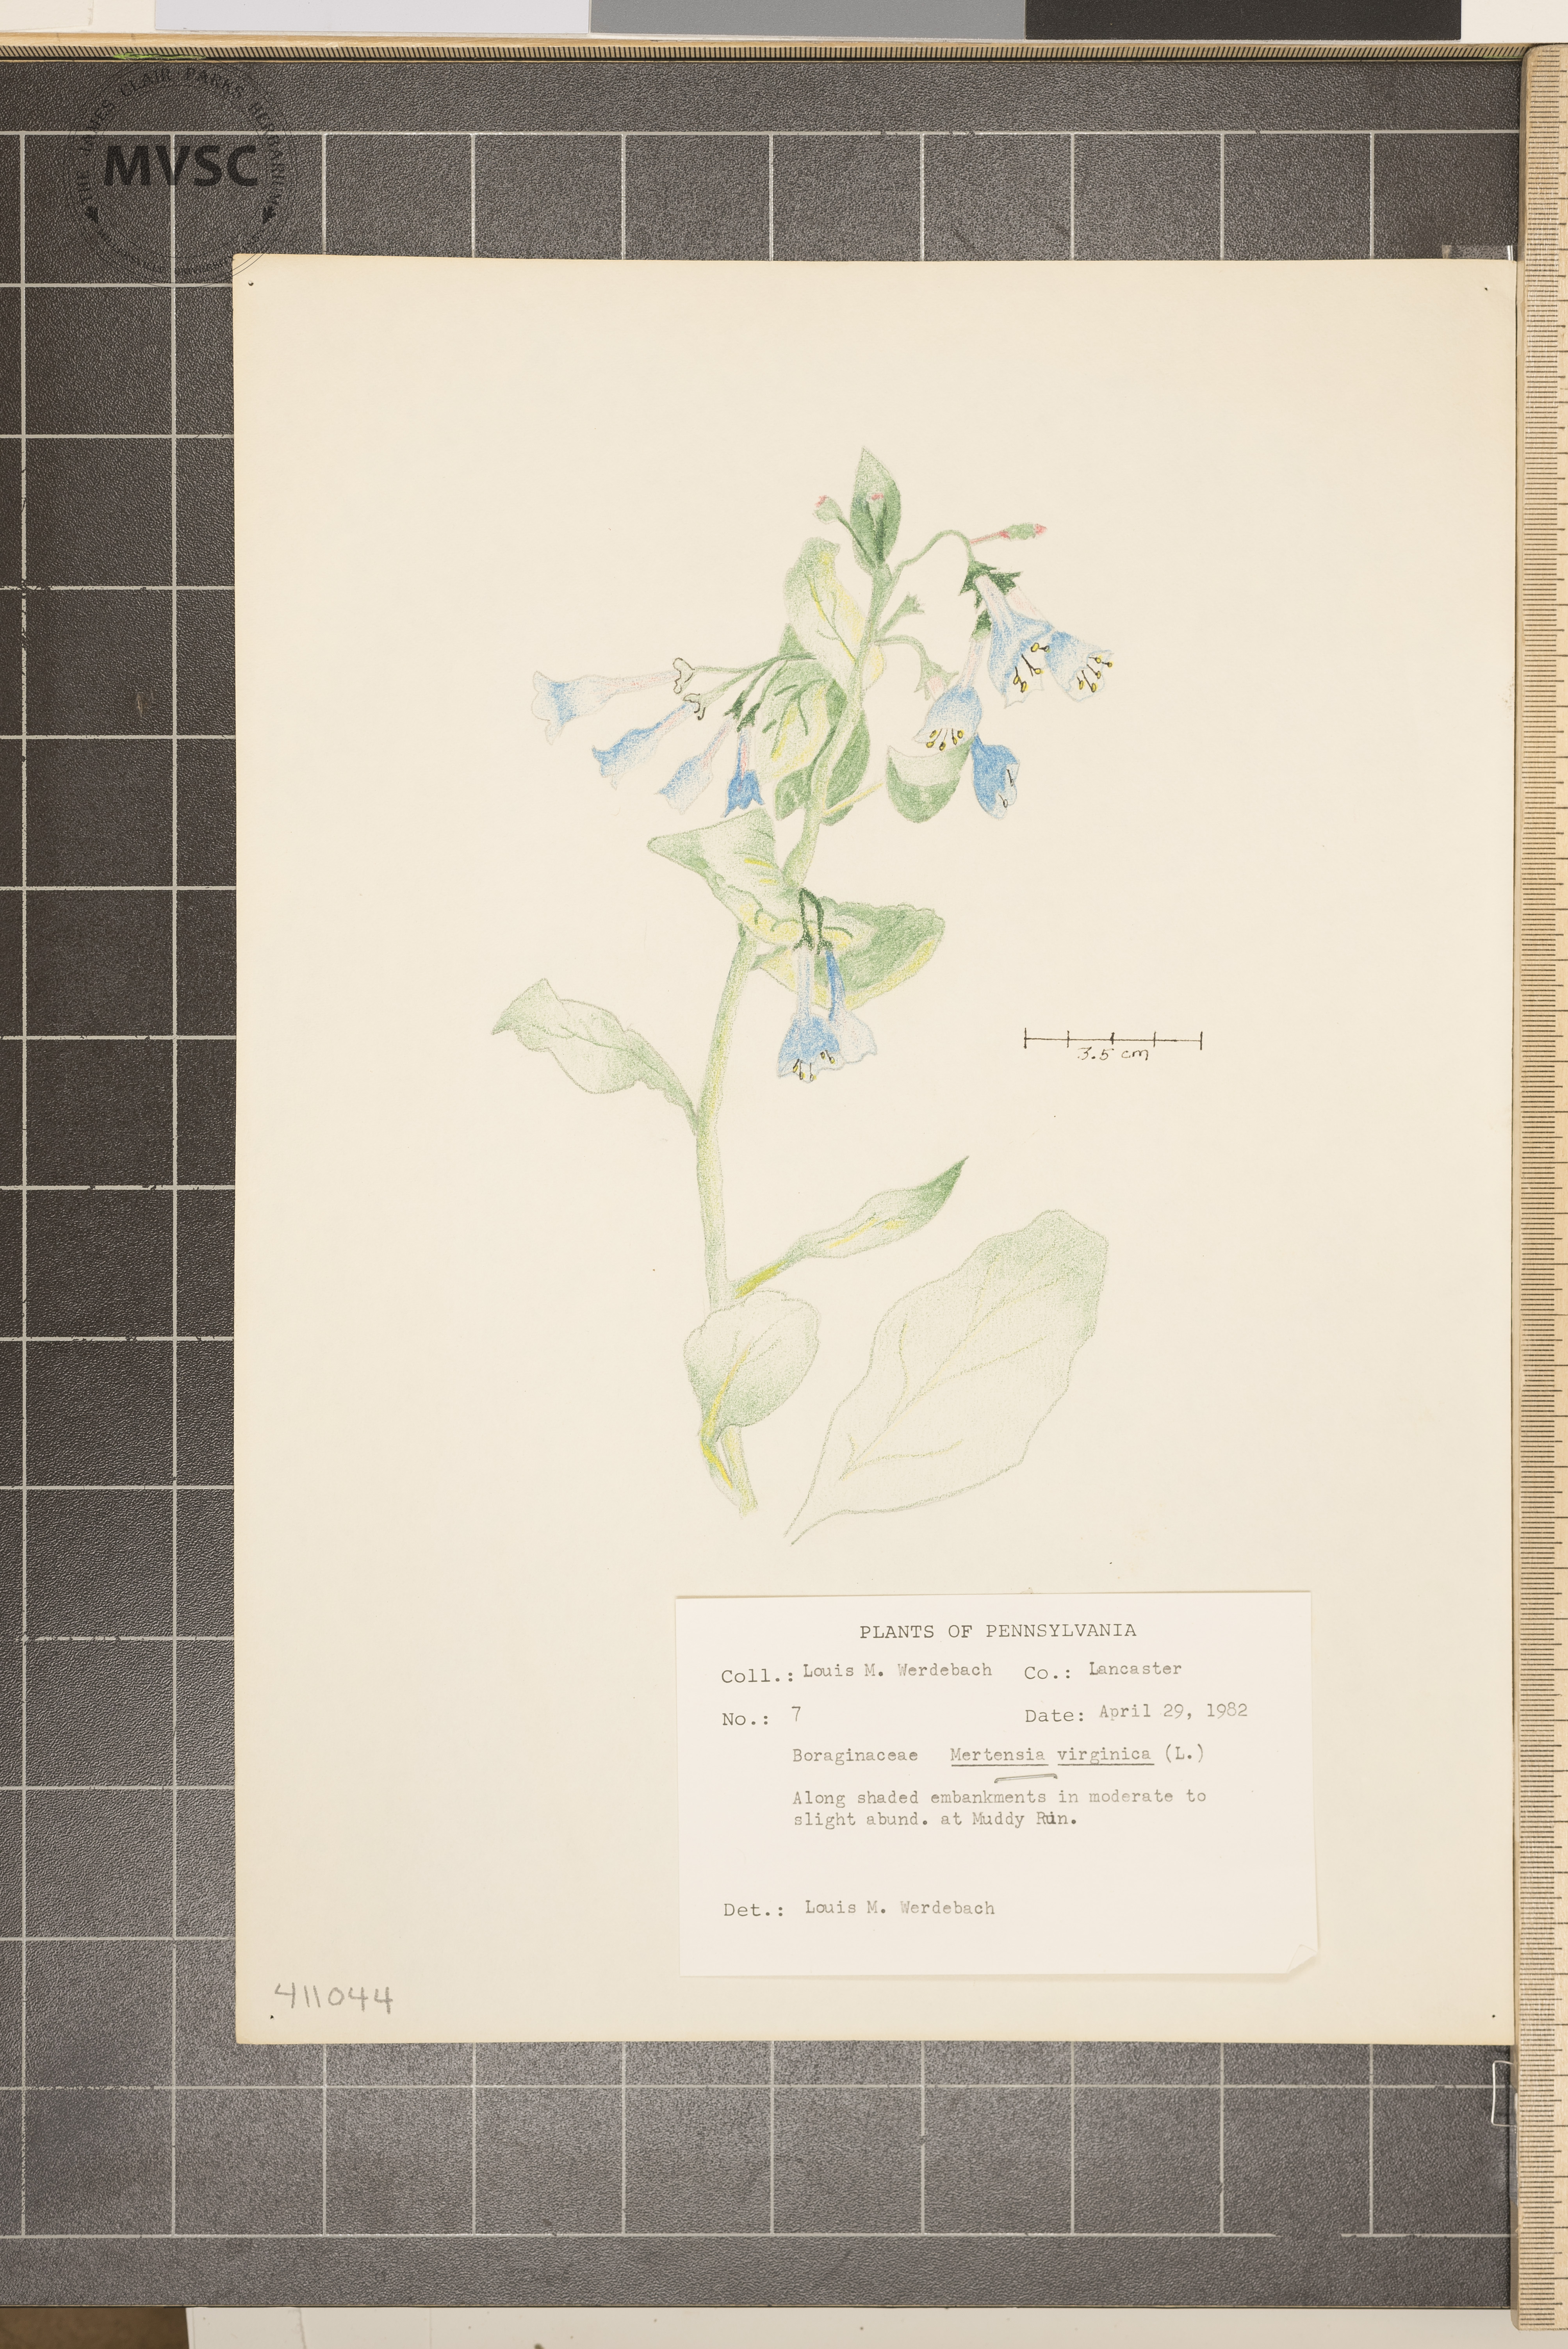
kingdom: Plantae
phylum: Tracheophyta
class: Magnoliopsida
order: Boraginales
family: Boraginaceae
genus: Mertensia
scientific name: Mertensia virginica
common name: Virginia bluebells
